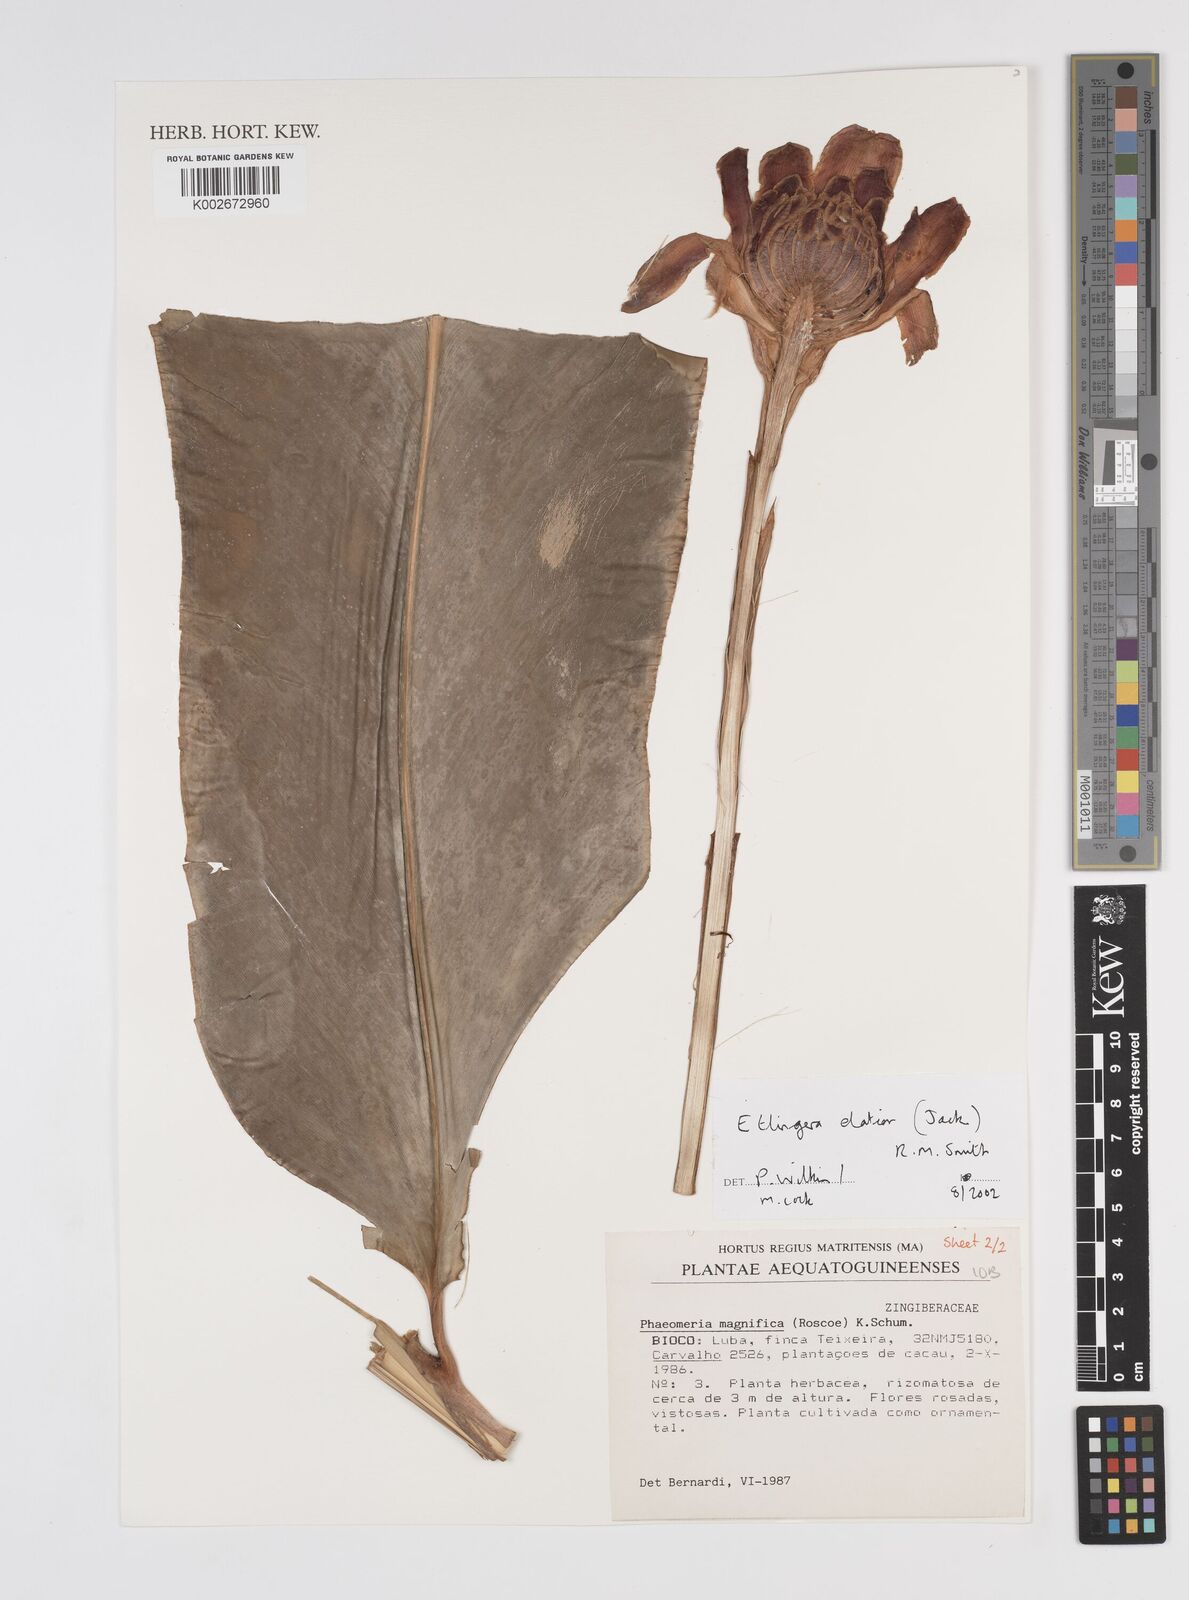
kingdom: Plantae
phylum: Tracheophyta
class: Liliopsida
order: Zingiberales
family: Zingiberaceae
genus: Etlingera
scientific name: Etlingera elatior
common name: Philippine waxflower
